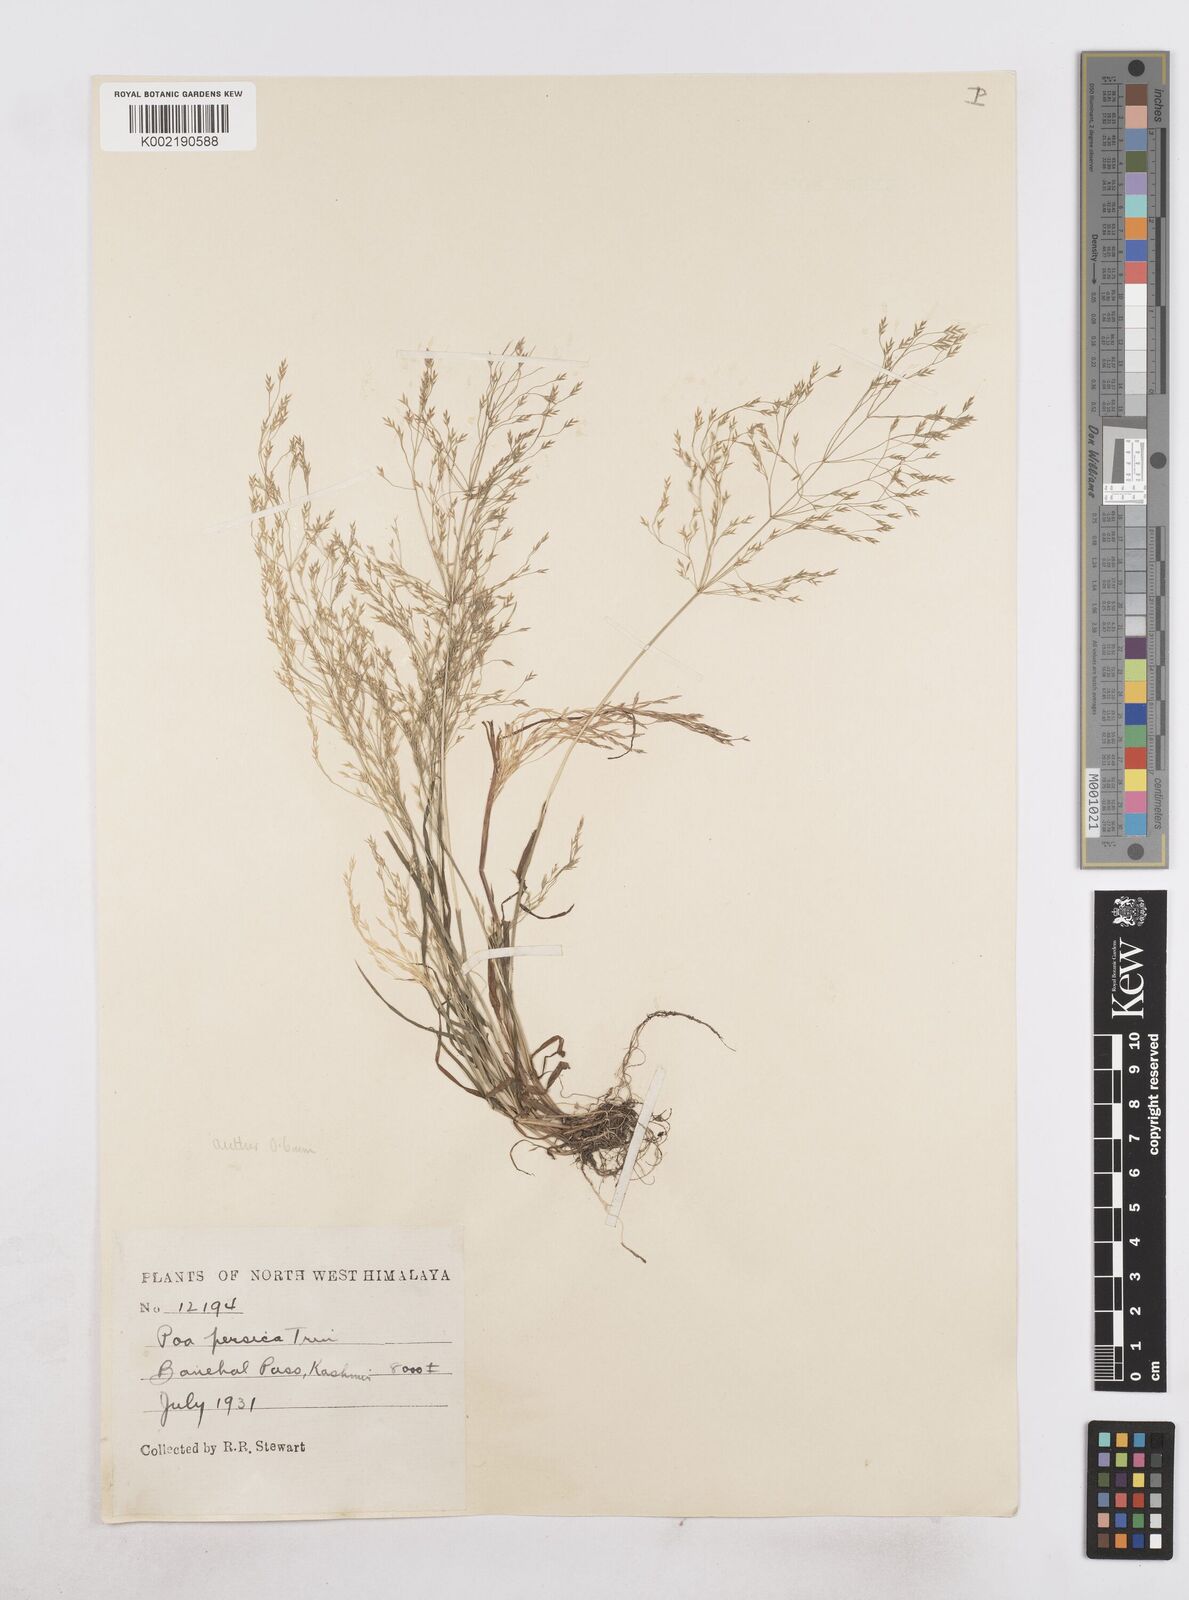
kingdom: Plantae
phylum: Tracheophyta
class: Liliopsida
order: Poales
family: Poaceae
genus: Poa
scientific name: Poa diaphora
